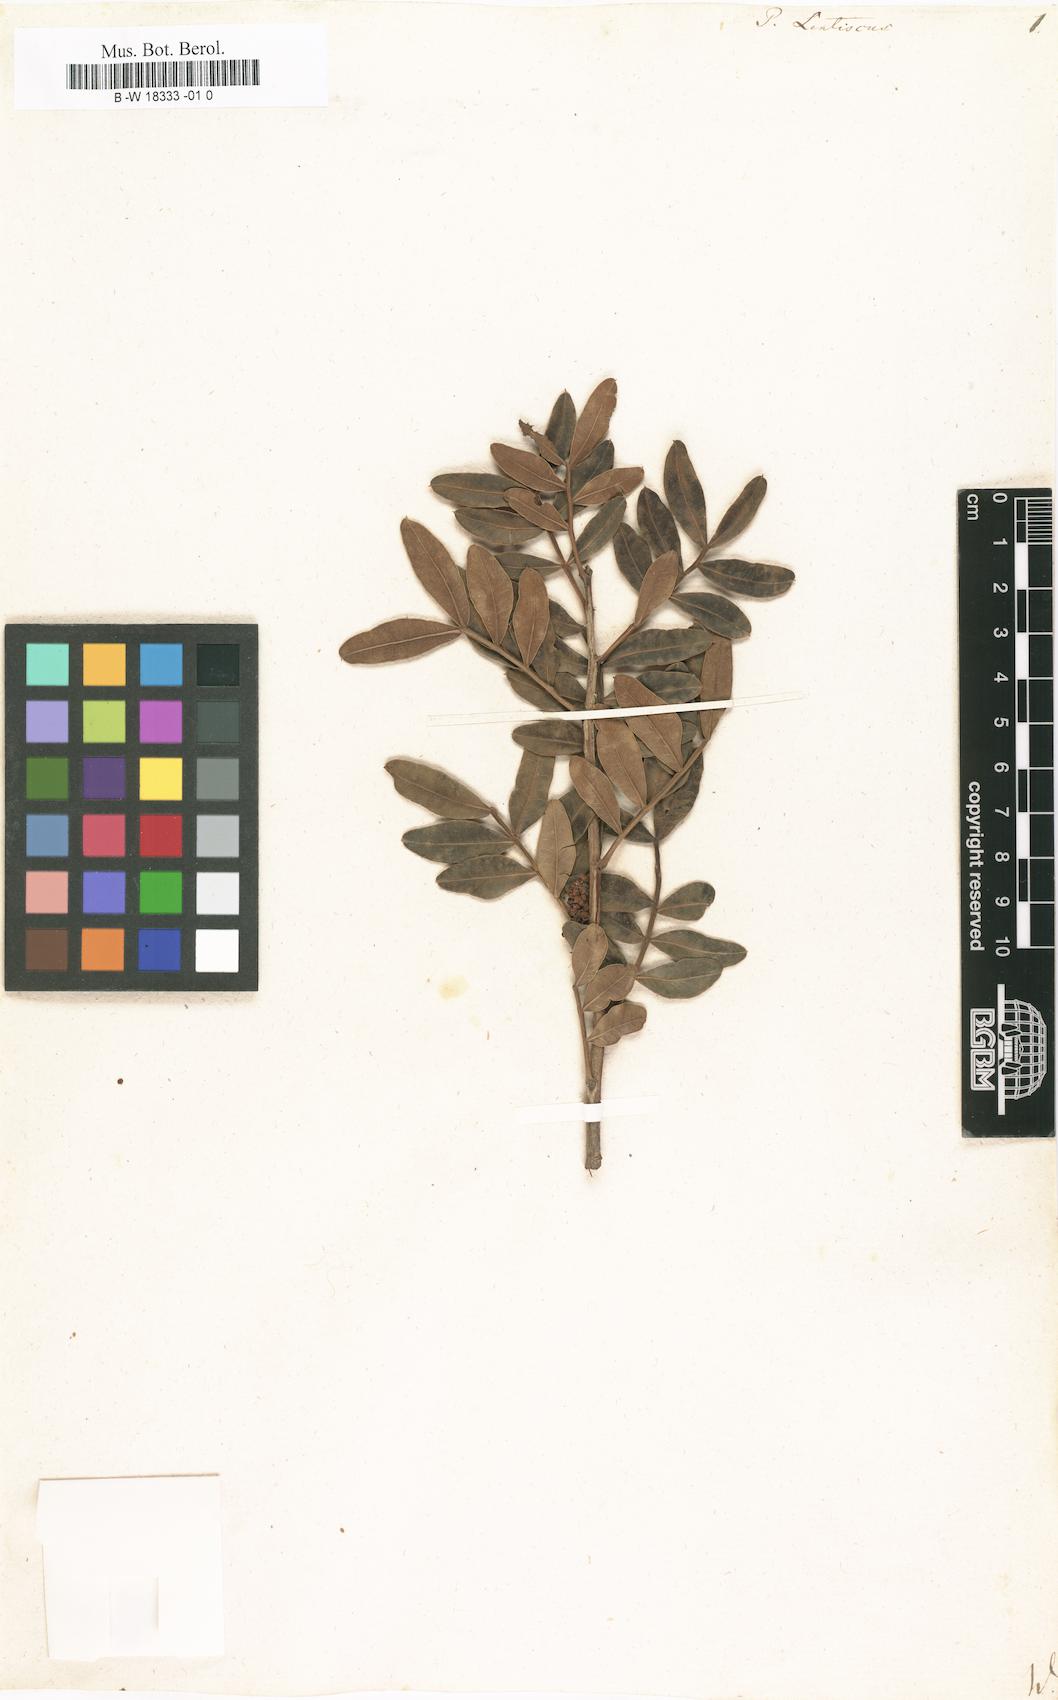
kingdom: Plantae
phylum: Tracheophyta
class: Magnoliopsida
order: Sapindales
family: Anacardiaceae
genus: Pistacia
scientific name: Pistacia lentiscus
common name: Lentisk
